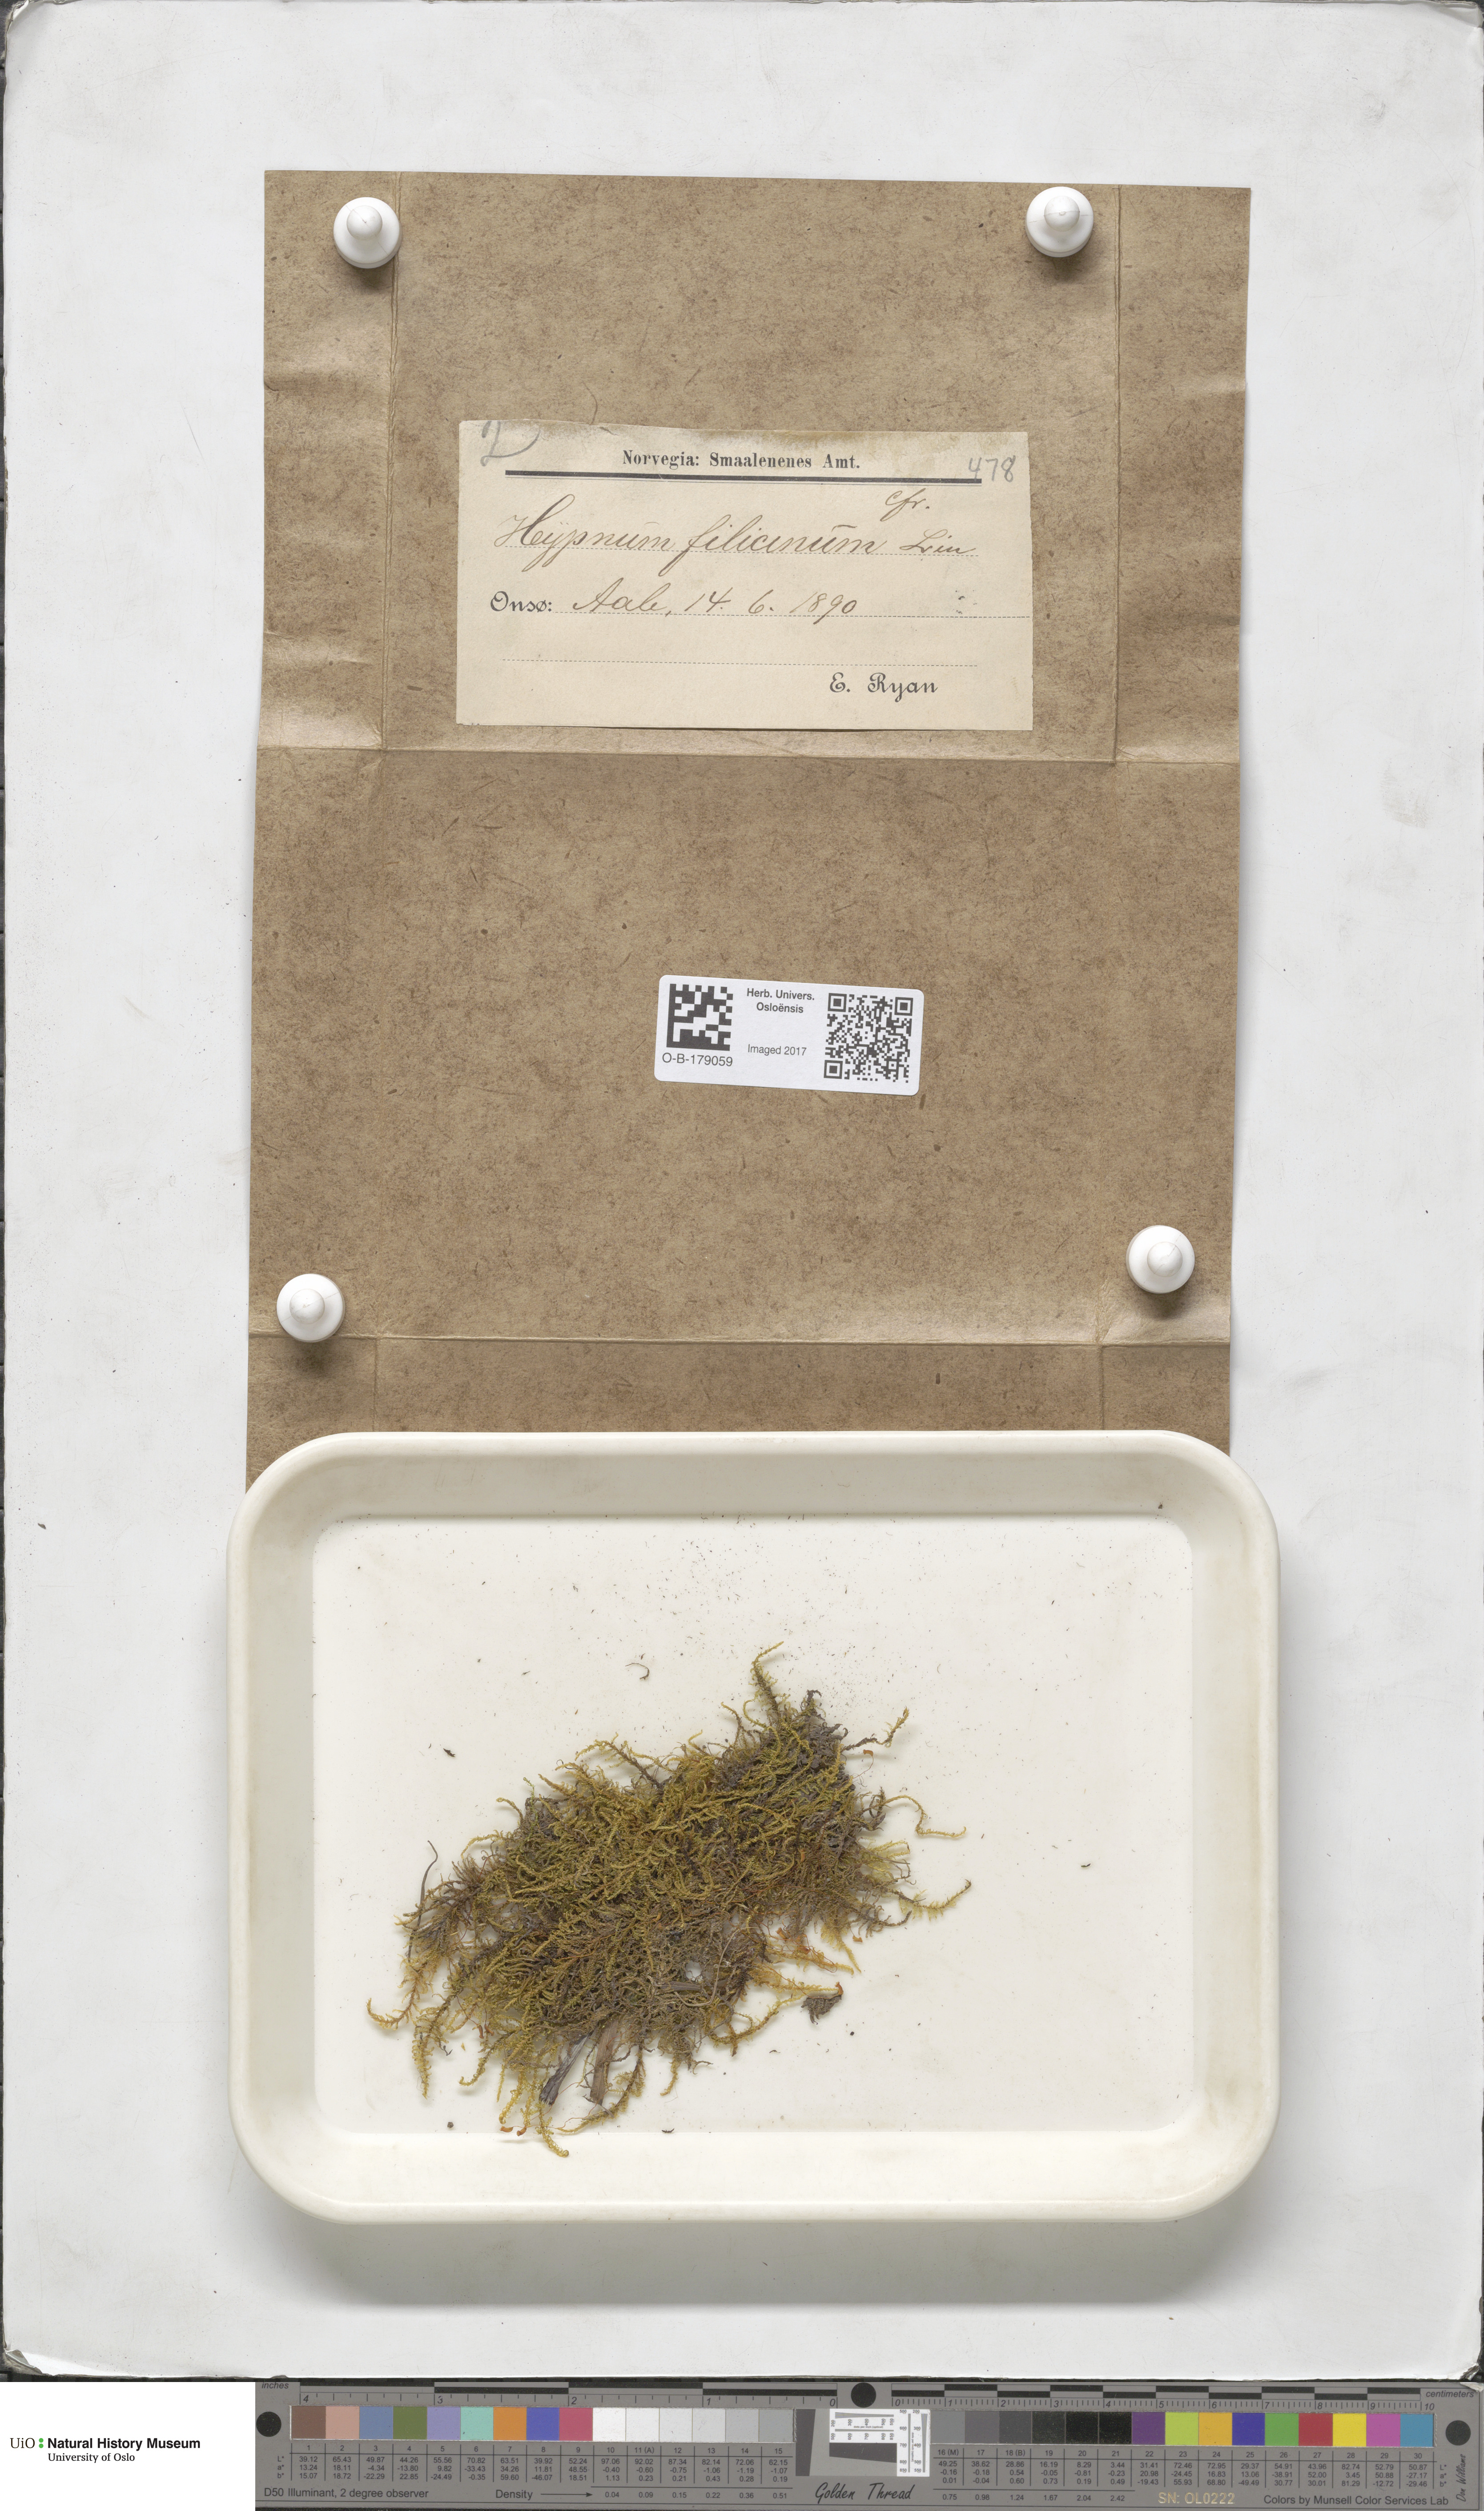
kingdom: Plantae
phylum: Bryophyta
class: Bryopsida
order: Hypnales
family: Amblystegiaceae
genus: Cratoneuron
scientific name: Cratoneuron filicinum
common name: Fern-leaved hook moss
